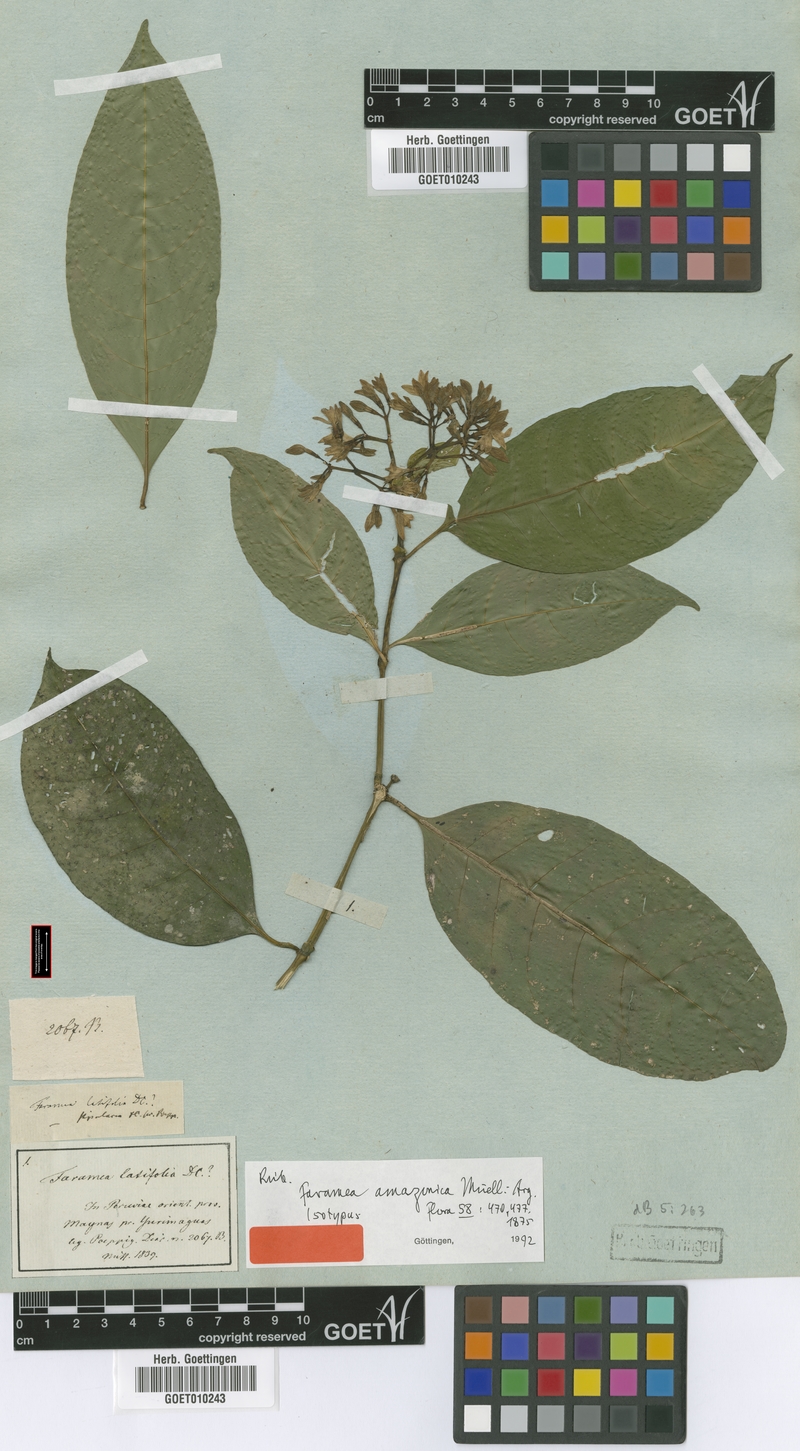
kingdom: Plantae
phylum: Tracheophyta
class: Magnoliopsida
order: Gentianales
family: Rubiaceae
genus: Faramea
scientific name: Faramea multiflora
